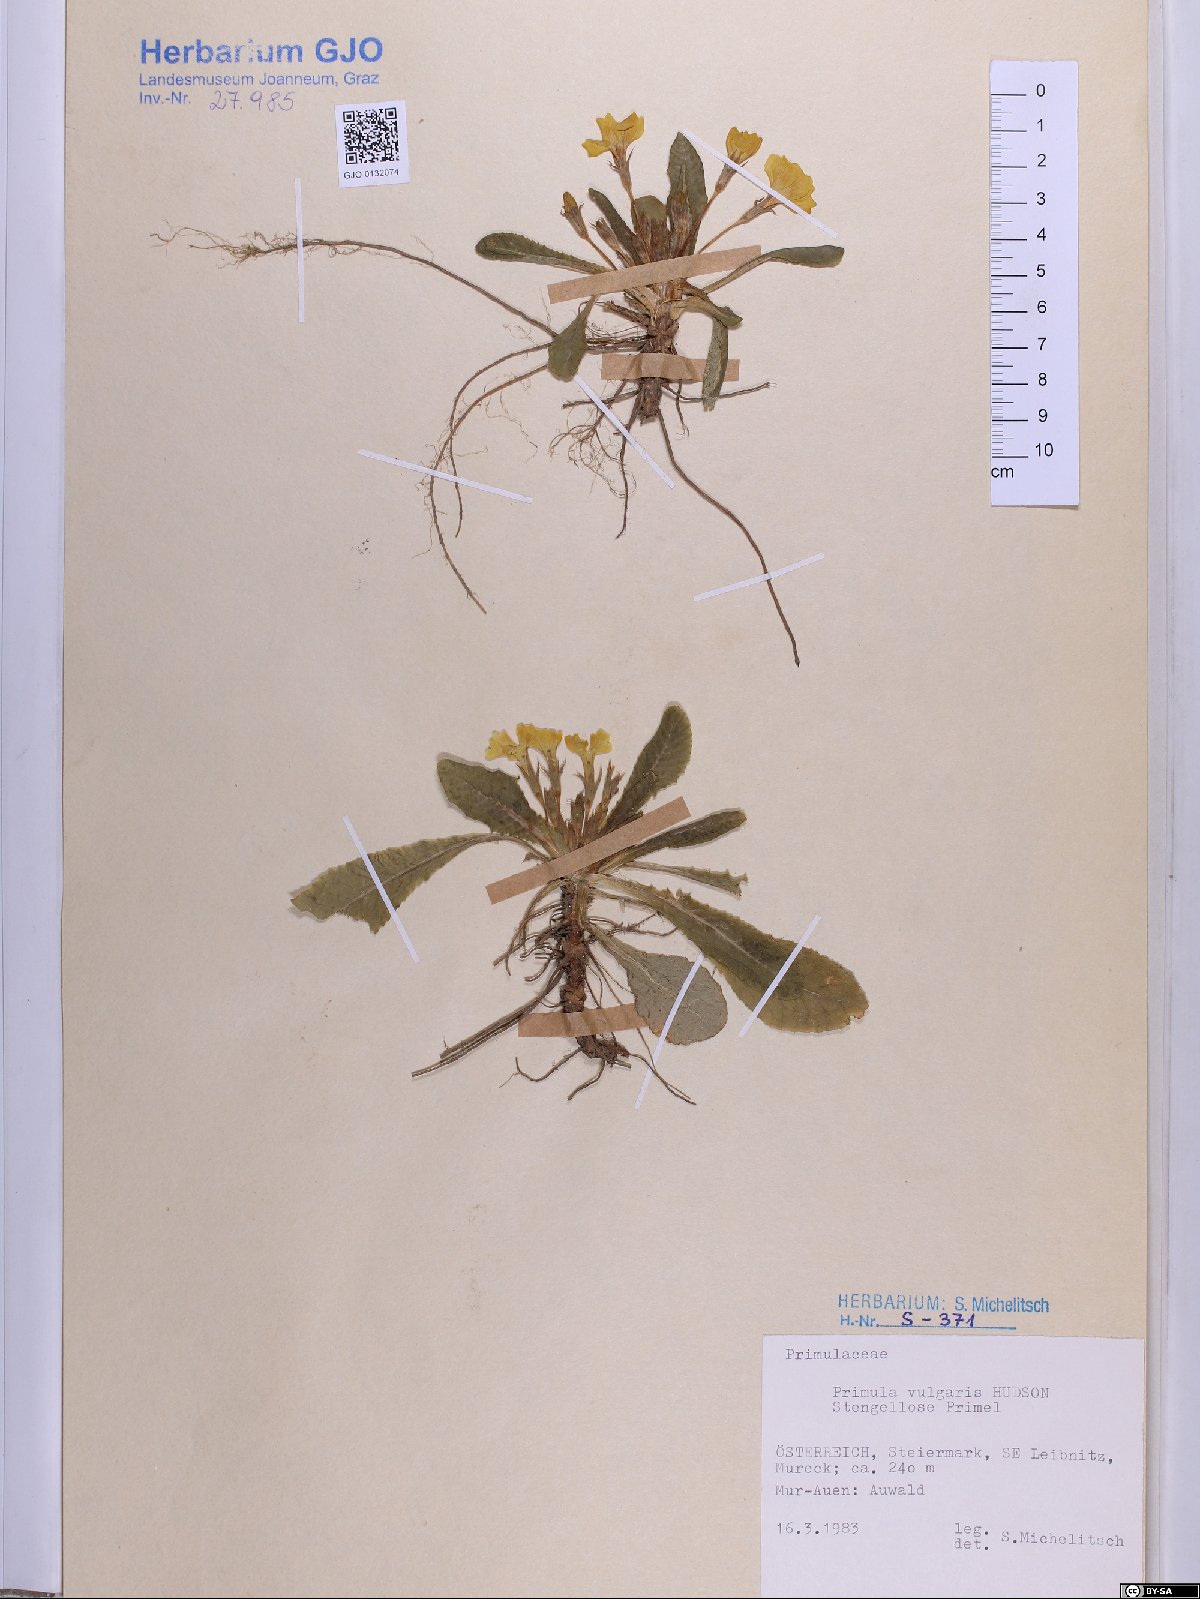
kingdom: Plantae
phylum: Tracheophyta
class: Magnoliopsida
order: Ericales
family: Primulaceae
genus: Primula
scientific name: Primula vulgaris
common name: Primrose
